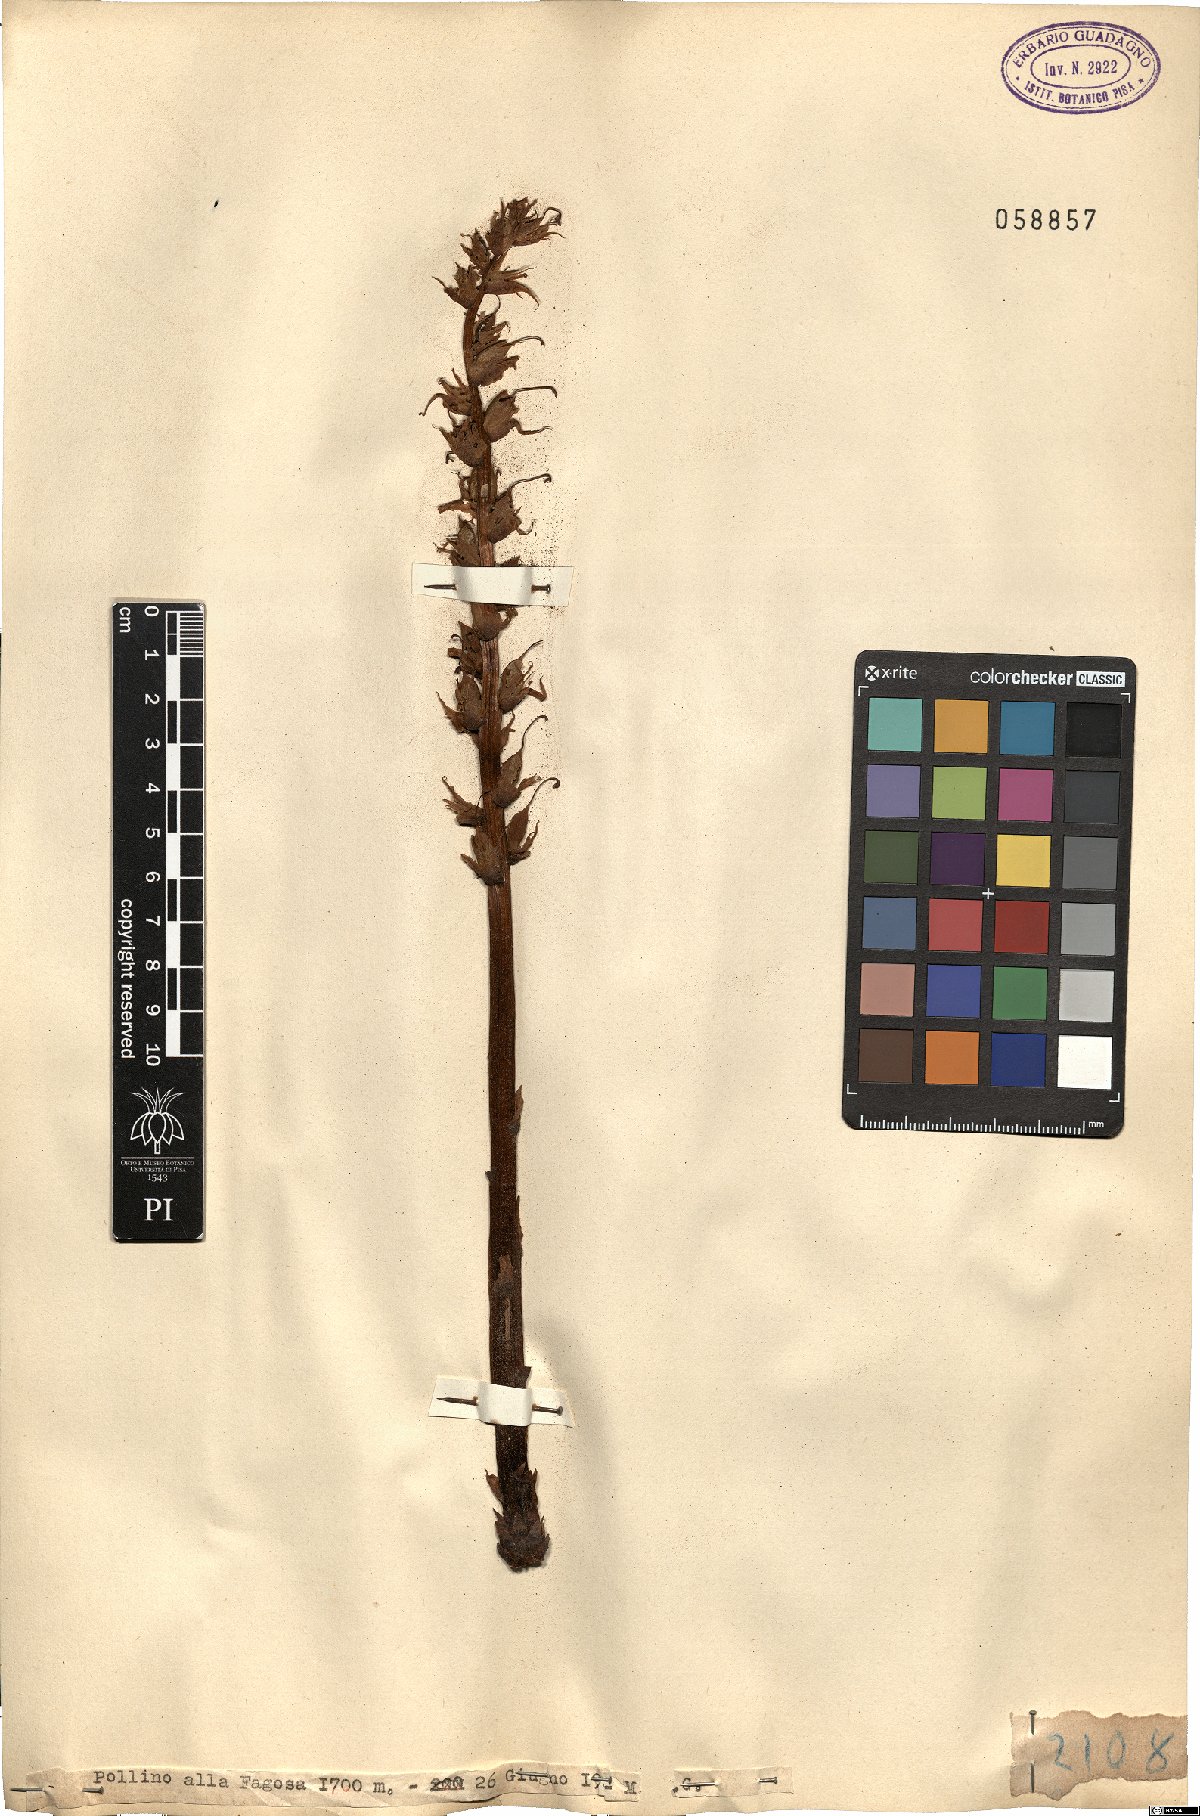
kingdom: Plantae
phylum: Tracheophyta
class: Magnoliopsida
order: Lamiales
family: Orobanchaceae
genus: Orobanche
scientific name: Orobanche
